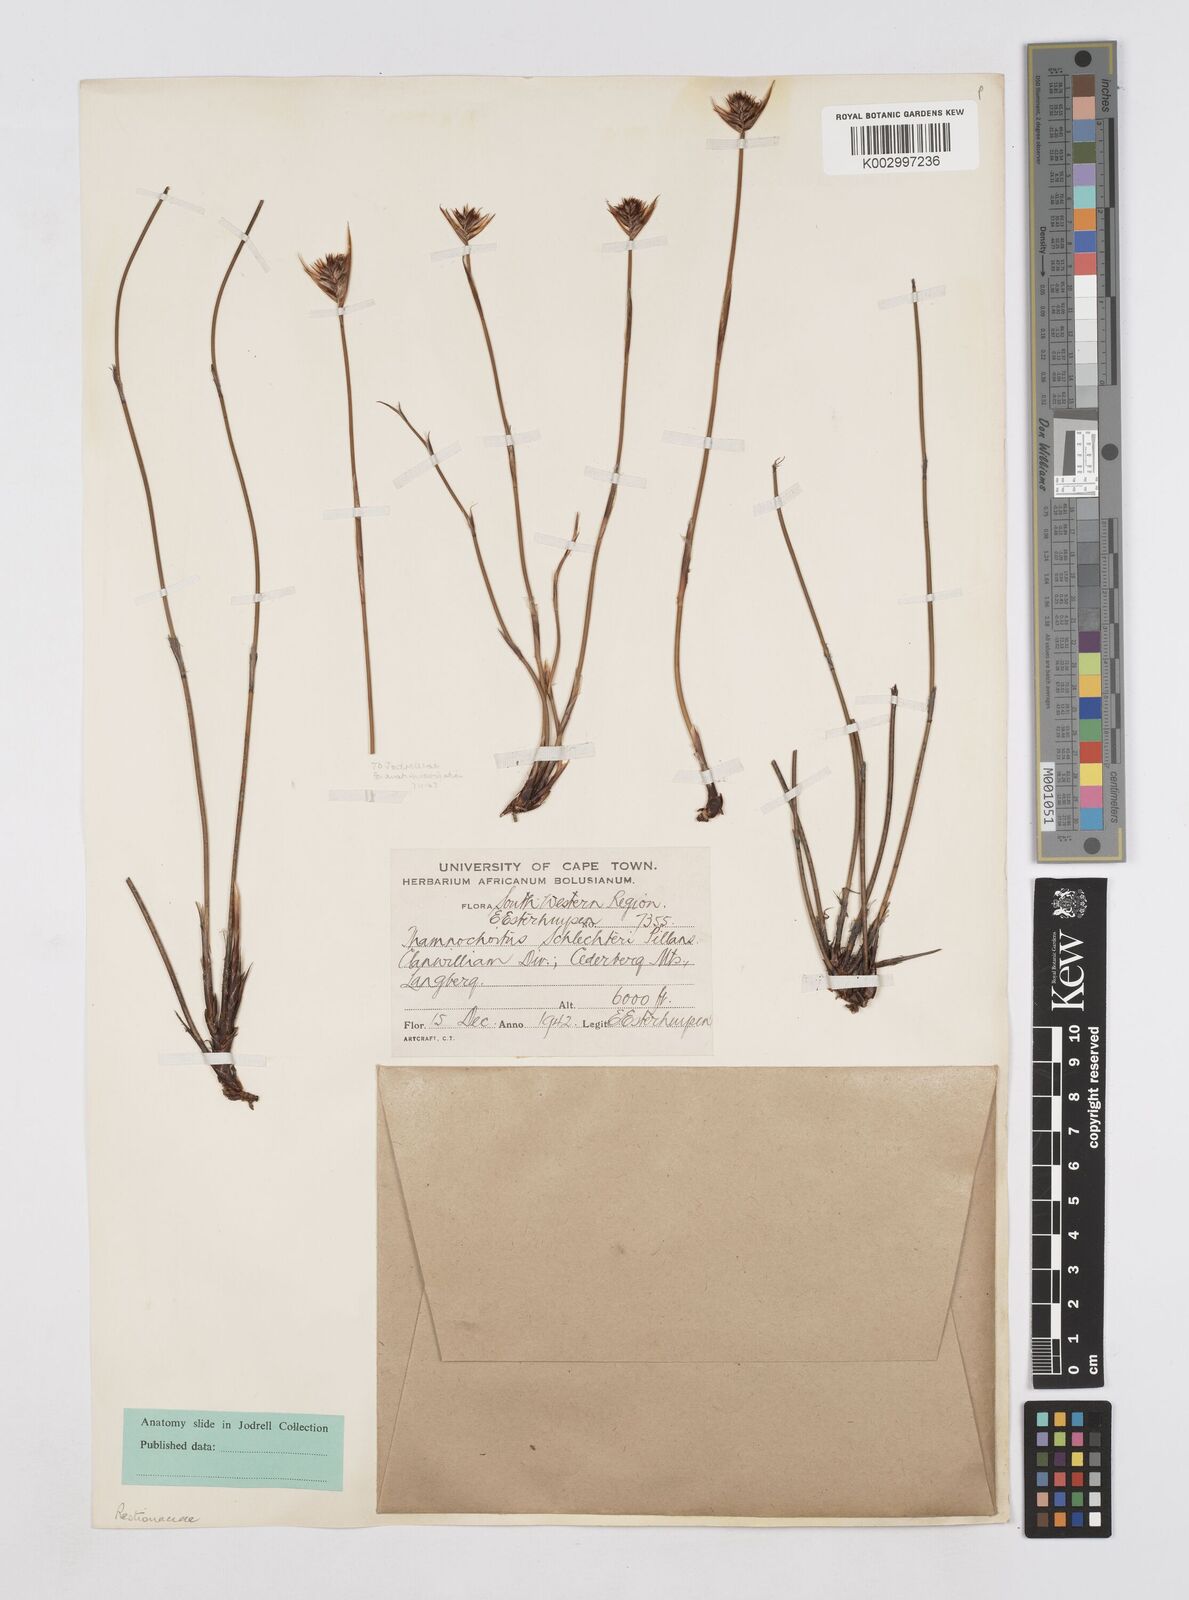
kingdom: Plantae
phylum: Tracheophyta
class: Liliopsida
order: Poales
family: Restionaceae
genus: Thamnochortus
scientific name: Thamnochortus schlechteri
